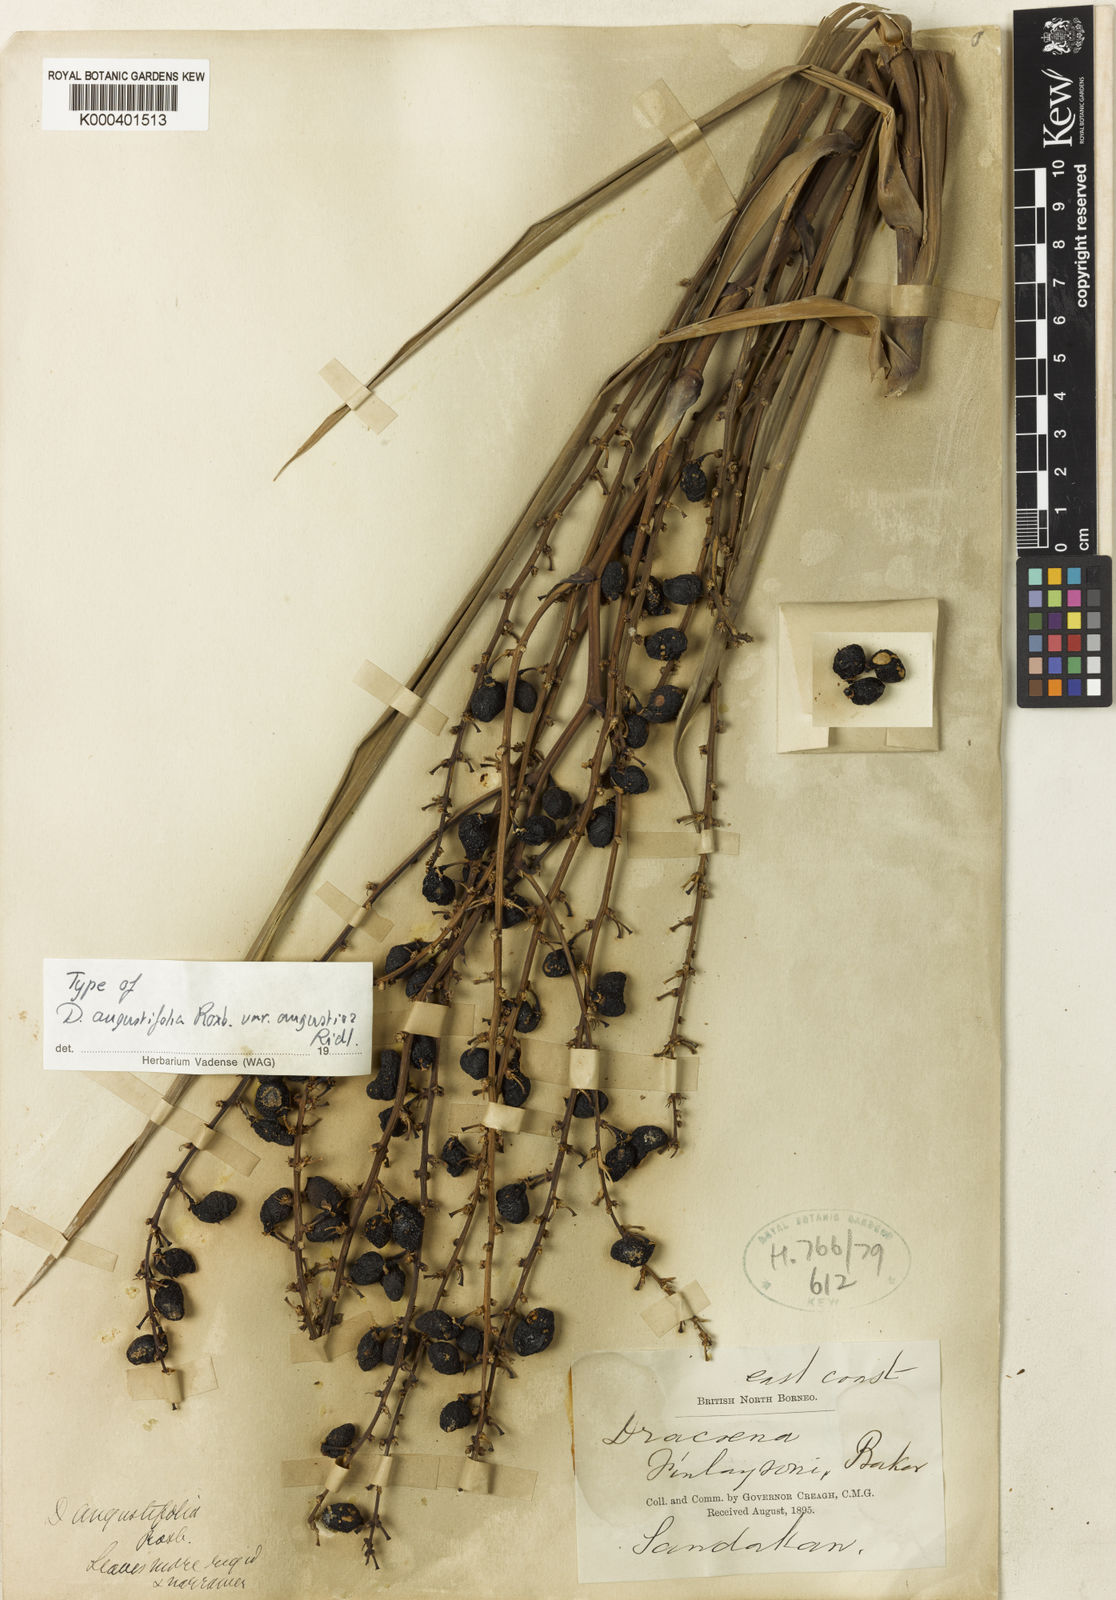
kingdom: Plantae
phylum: Tracheophyta
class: Liliopsida
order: Asparagales
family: Asparagaceae
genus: Dracaena
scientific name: Dracaena angustifolia
